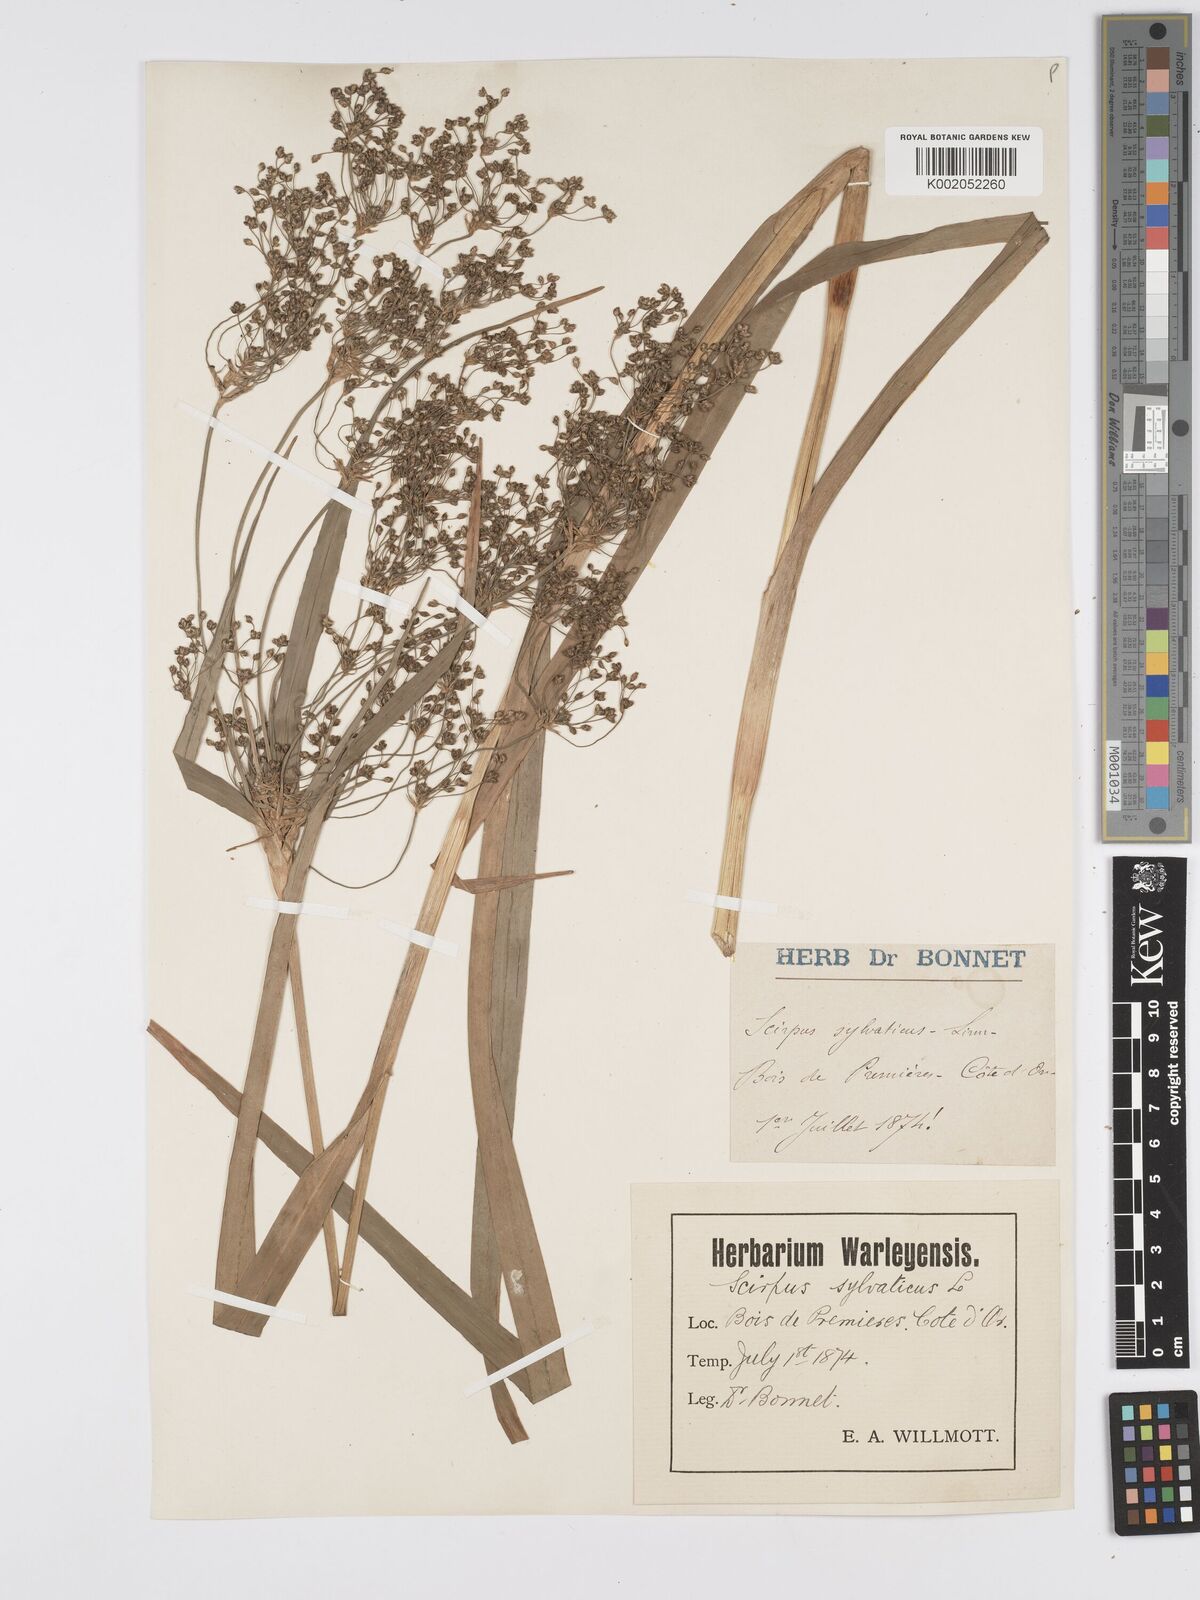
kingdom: Plantae
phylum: Tracheophyta
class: Liliopsida
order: Poales
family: Cyperaceae
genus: Scirpus
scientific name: Scirpus sylvaticus
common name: Wood club-rush
